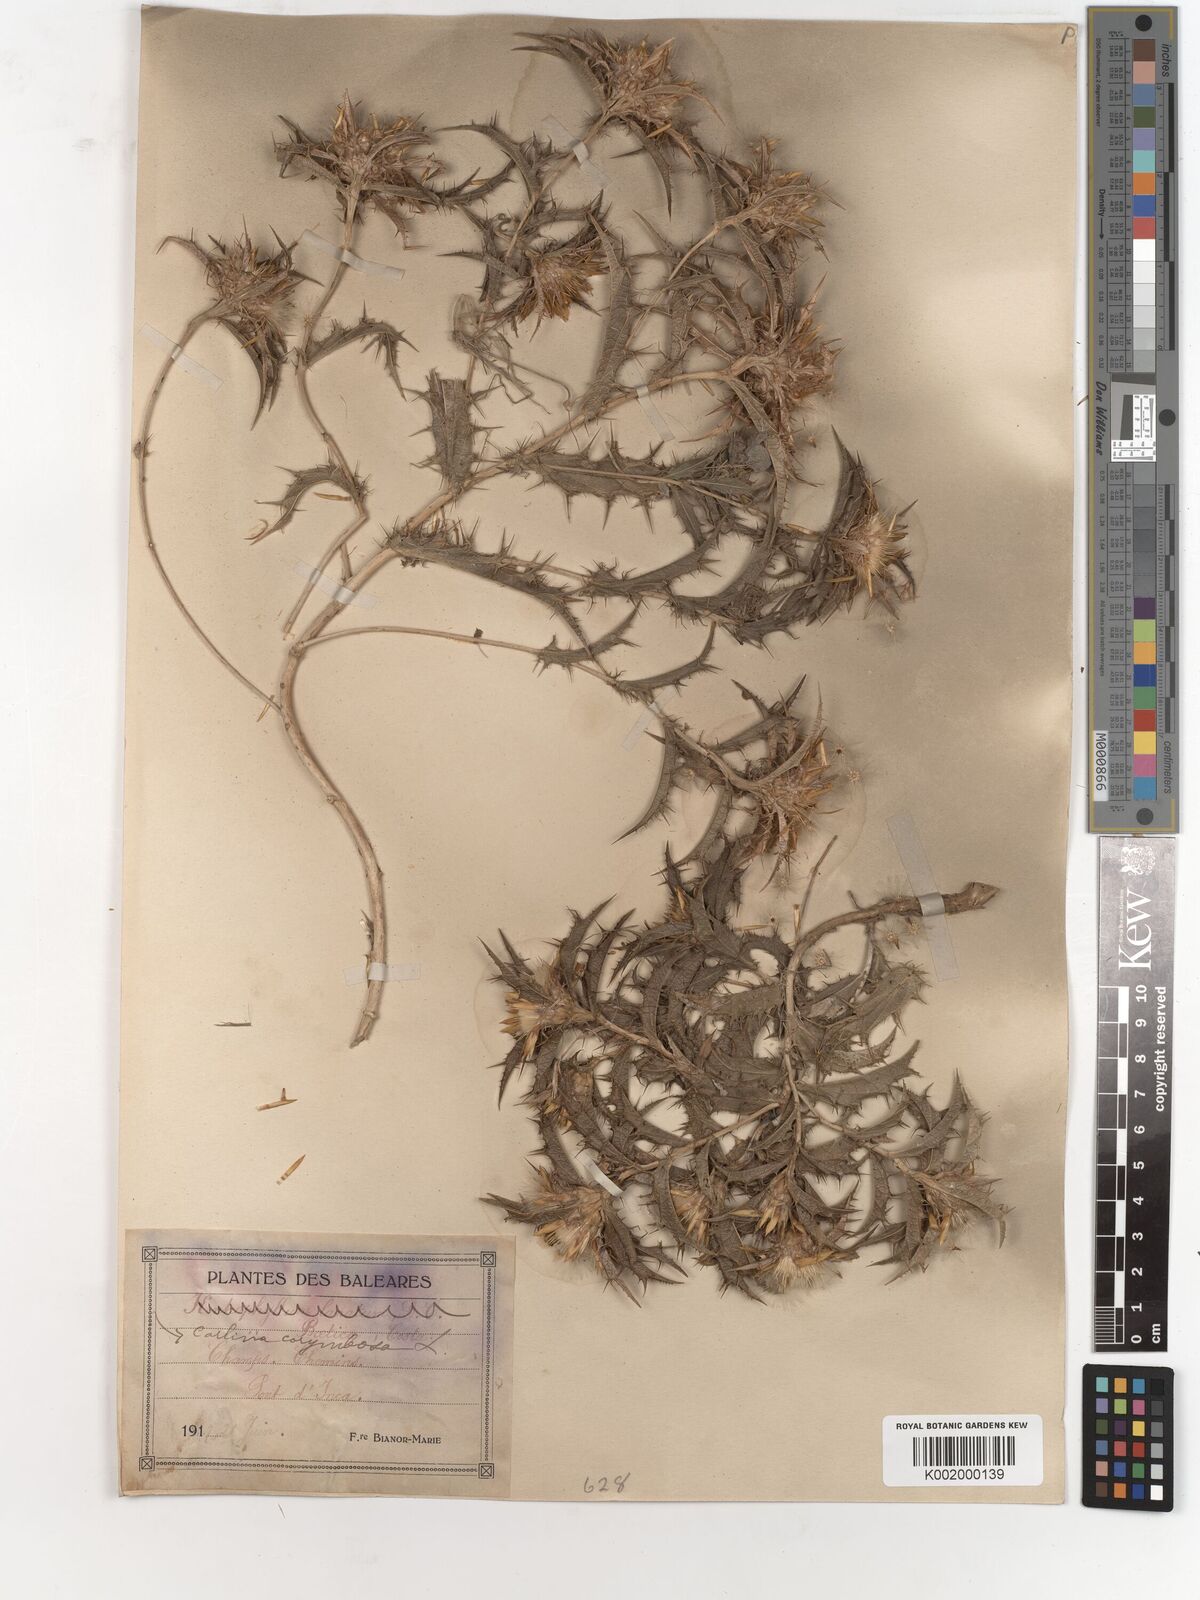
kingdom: Plantae
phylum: Tracheophyta
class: Magnoliopsida
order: Asterales
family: Asteraceae
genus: Carlina
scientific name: Carlina corymbosa
